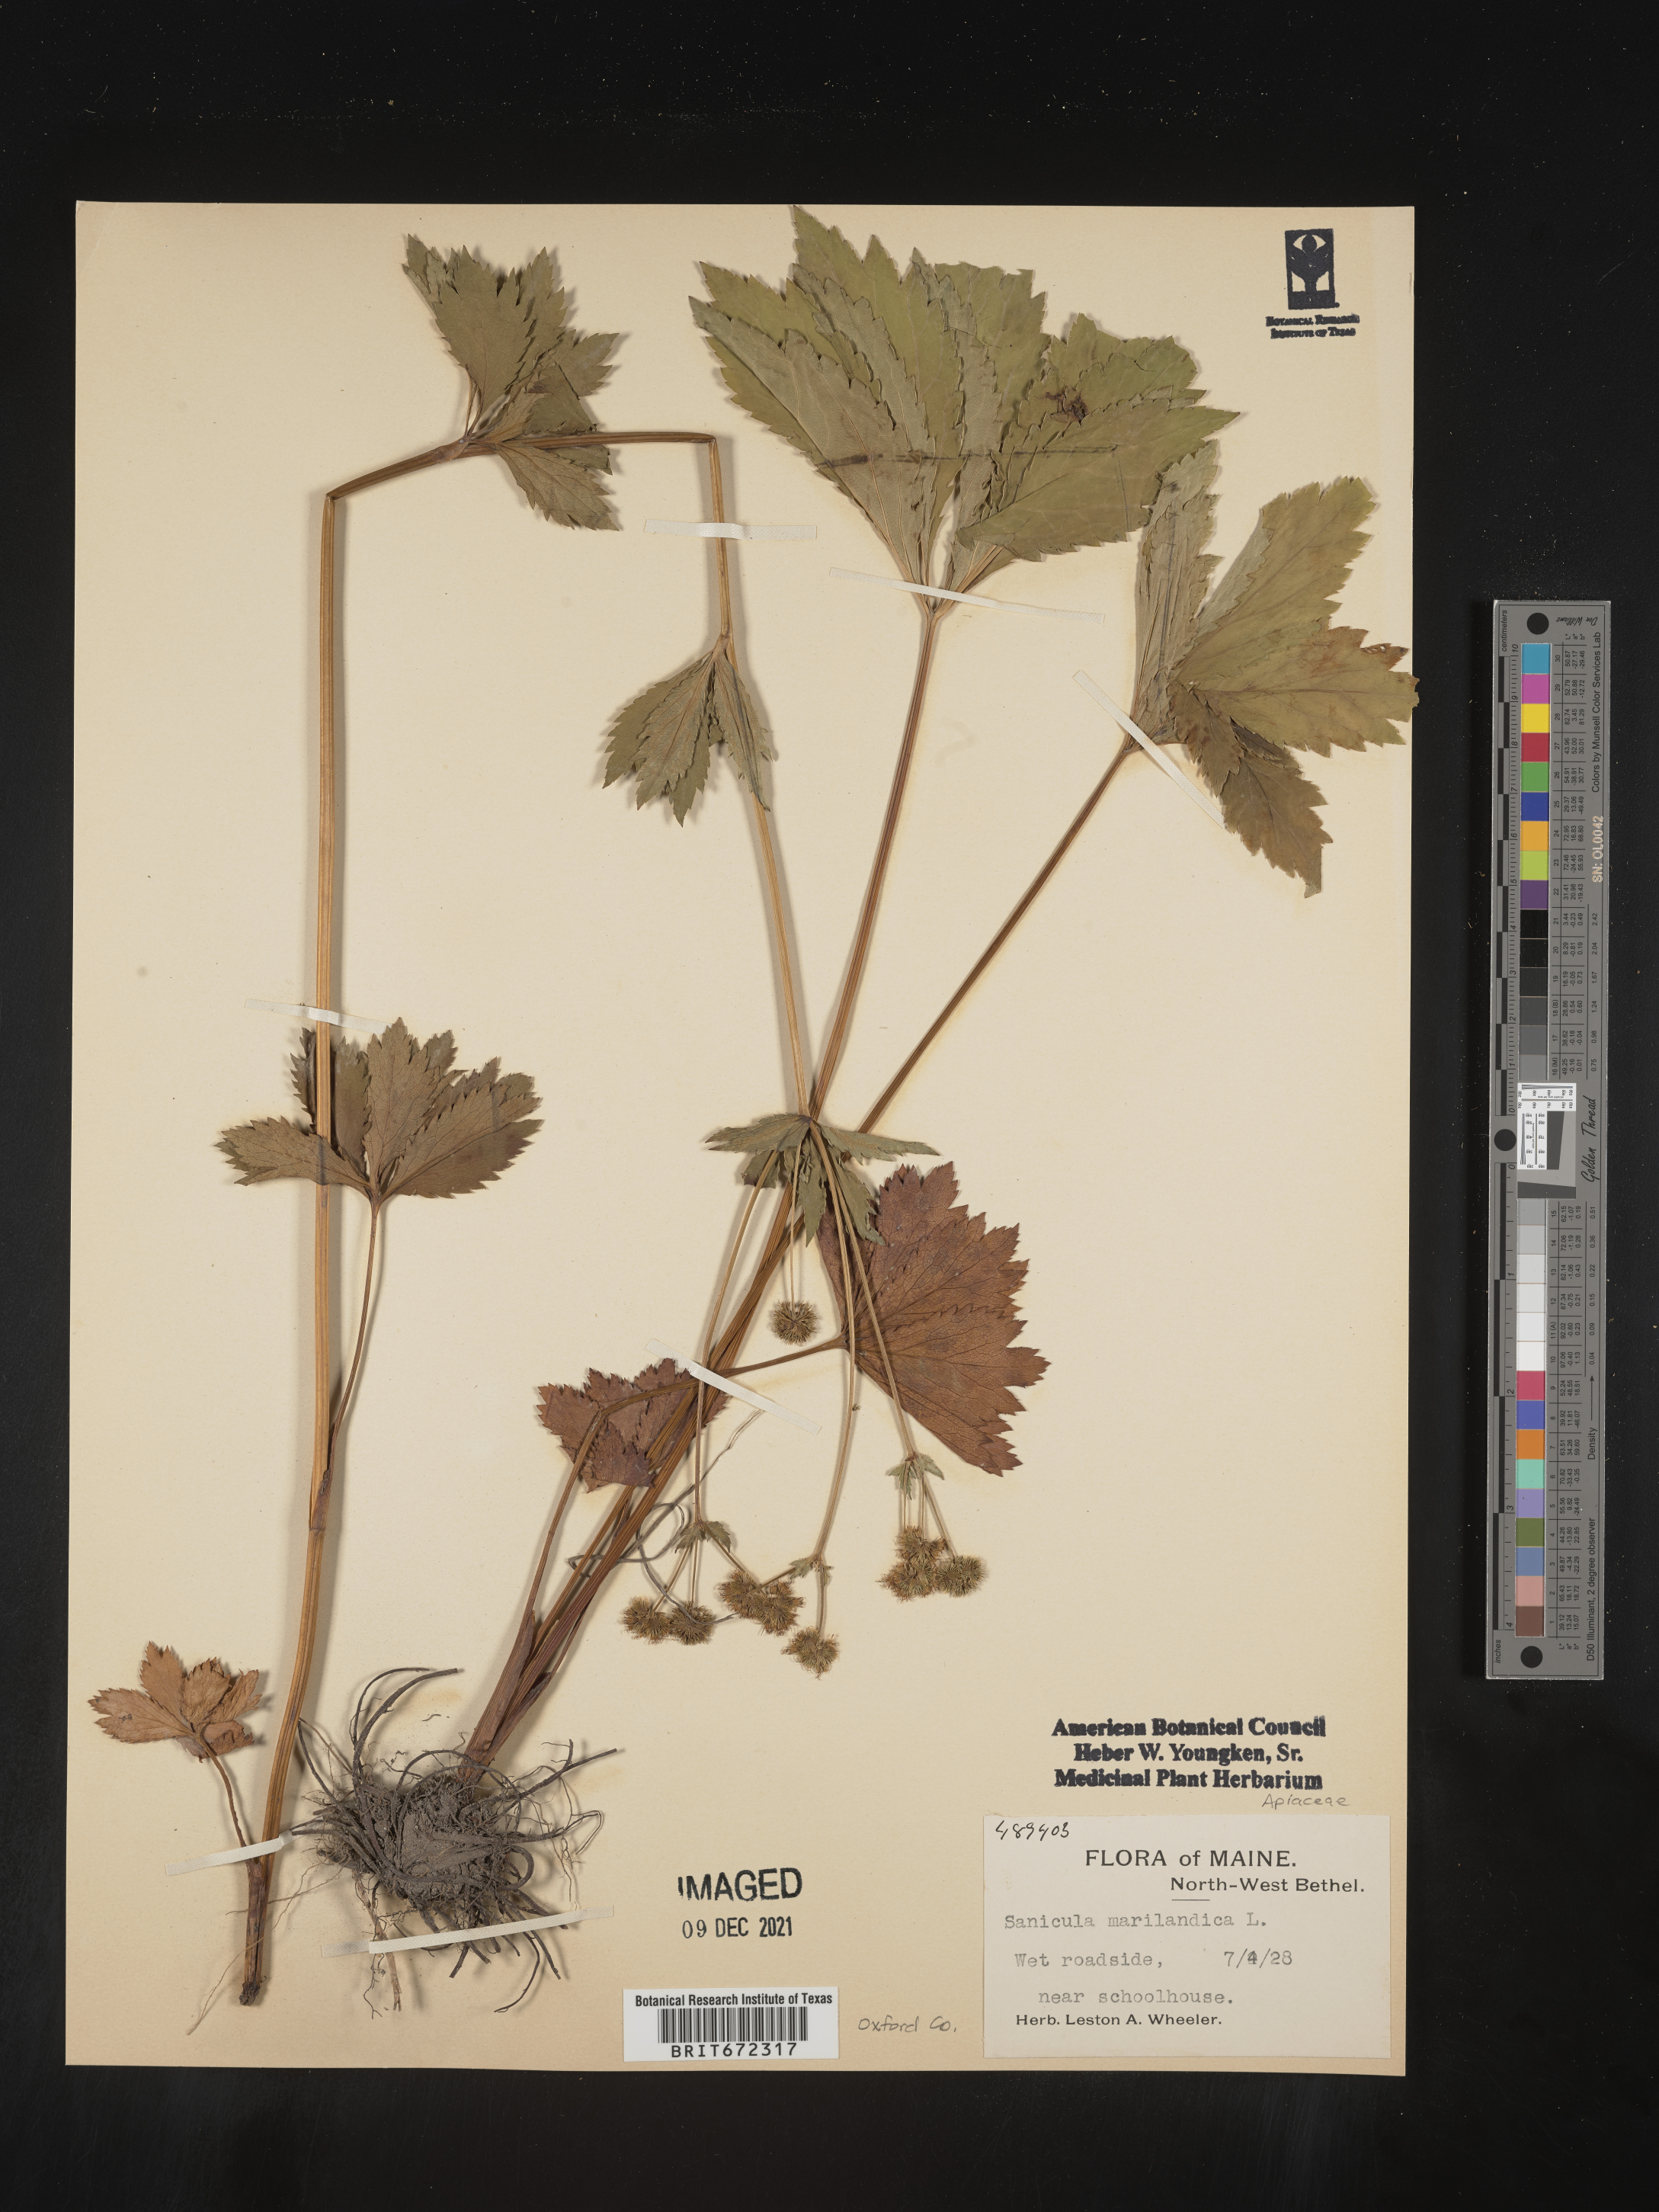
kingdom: Plantae
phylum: Tracheophyta
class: Magnoliopsida
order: Apiales
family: Apiaceae
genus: Sanicula
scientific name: Sanicula marilandica
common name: Black snakeroot
